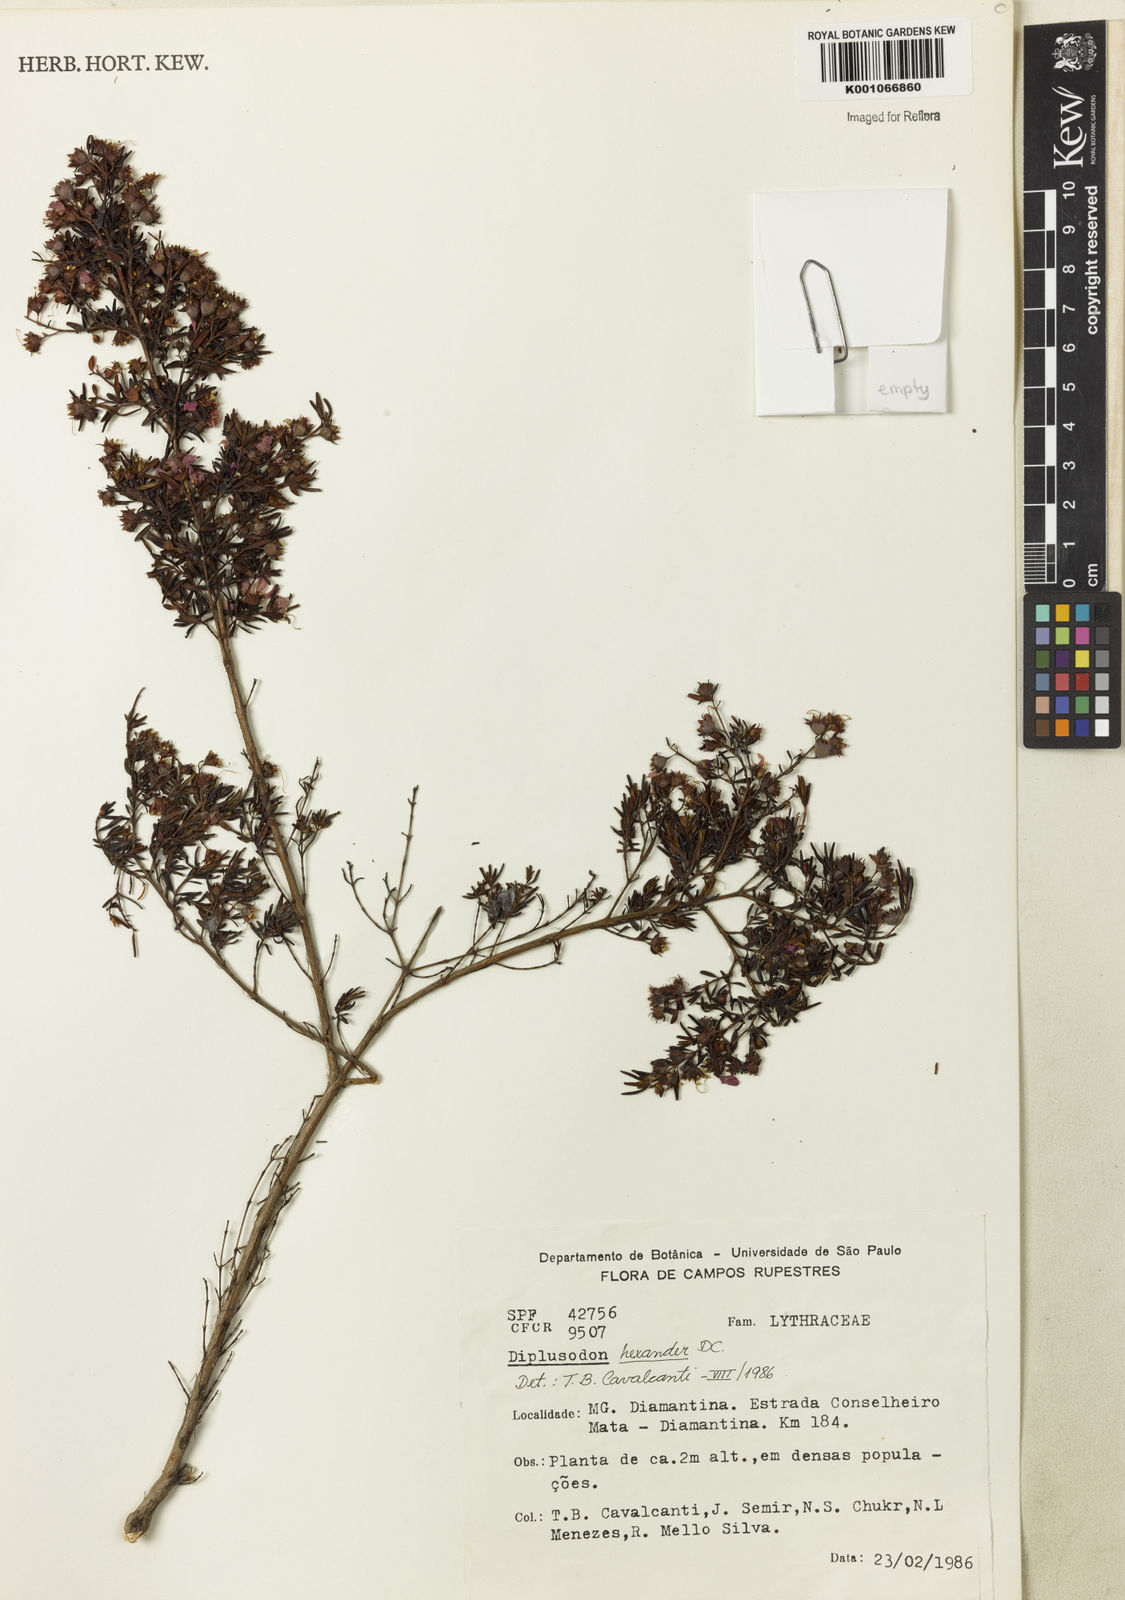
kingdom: Plantae
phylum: Tracheophyta
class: Magnoliopsida
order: Myrtales
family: Lythraceae
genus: Diplusodon
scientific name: Diplusodon hexander
